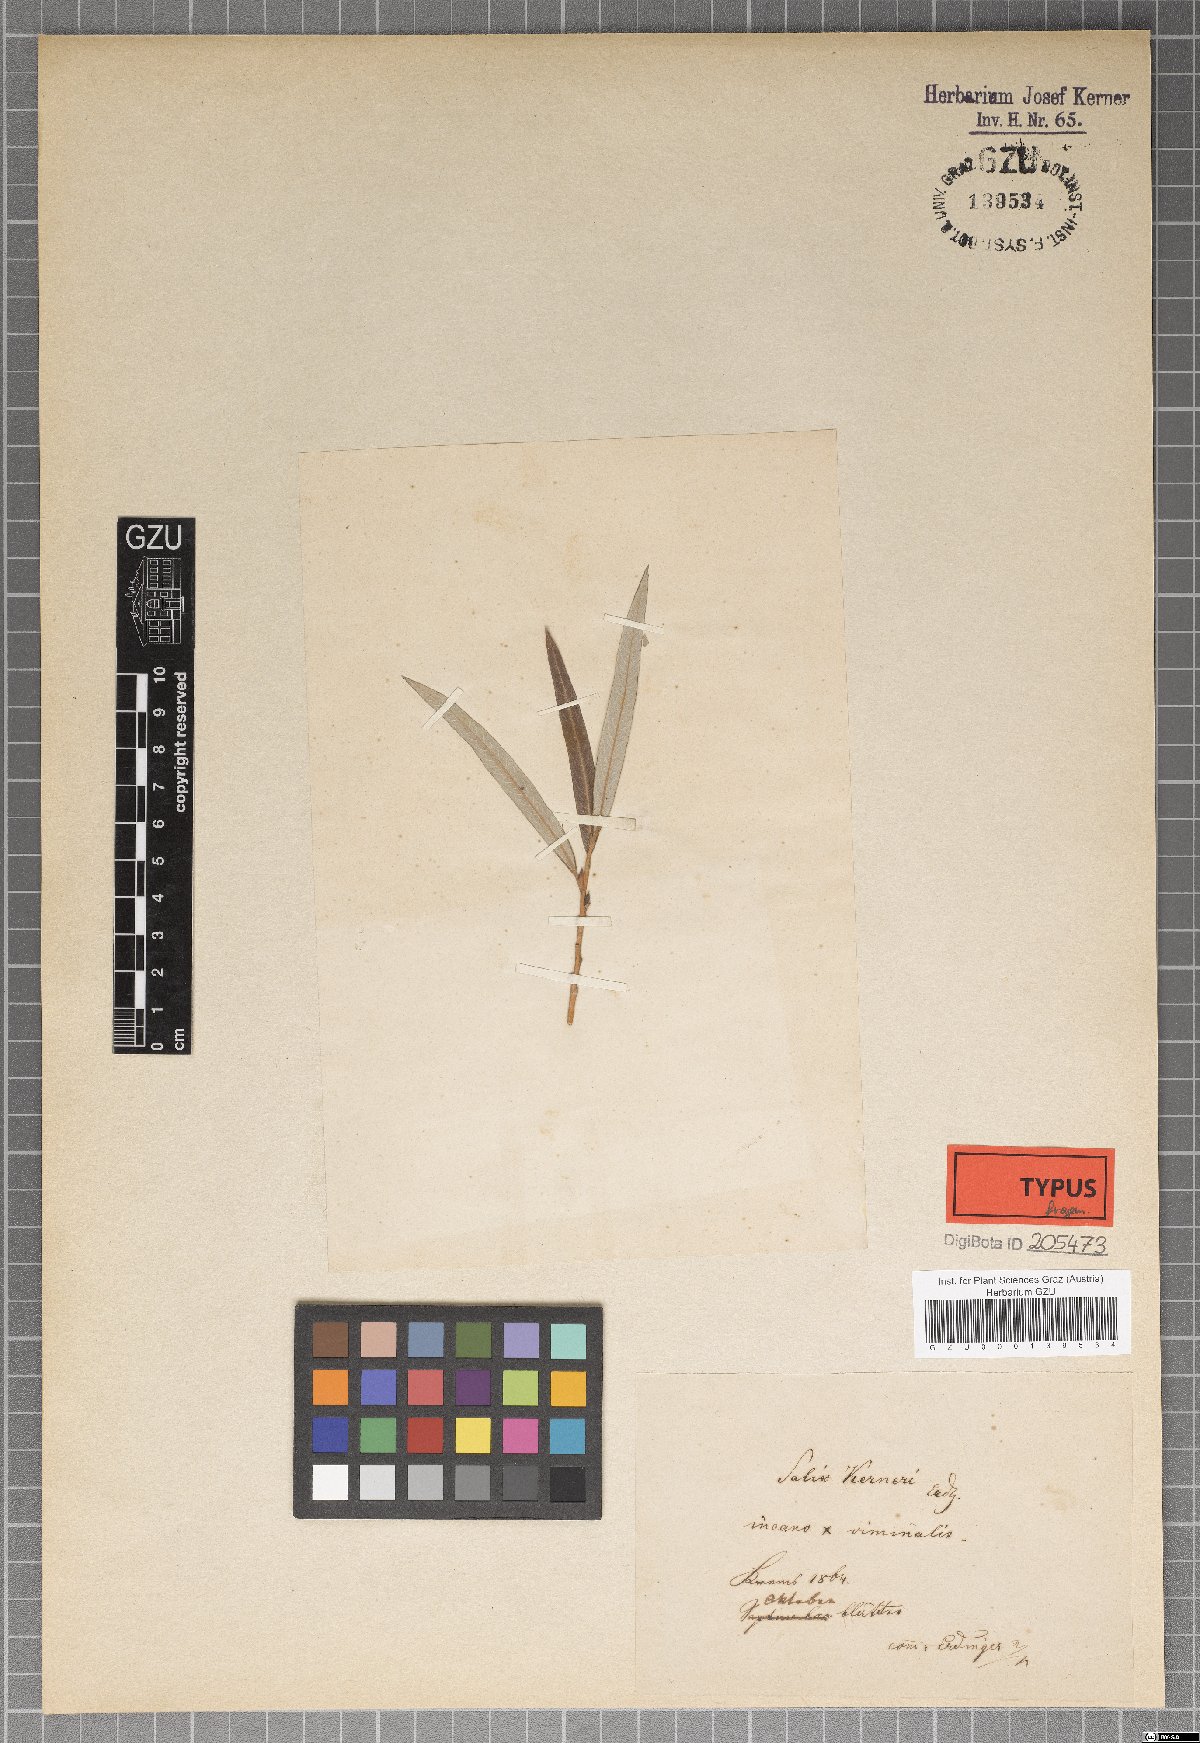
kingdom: Plantae
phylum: Tracheophyta
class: Magnoliopsida
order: Malpighiales
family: Salicaceae
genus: Salix
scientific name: Salix kerneri
